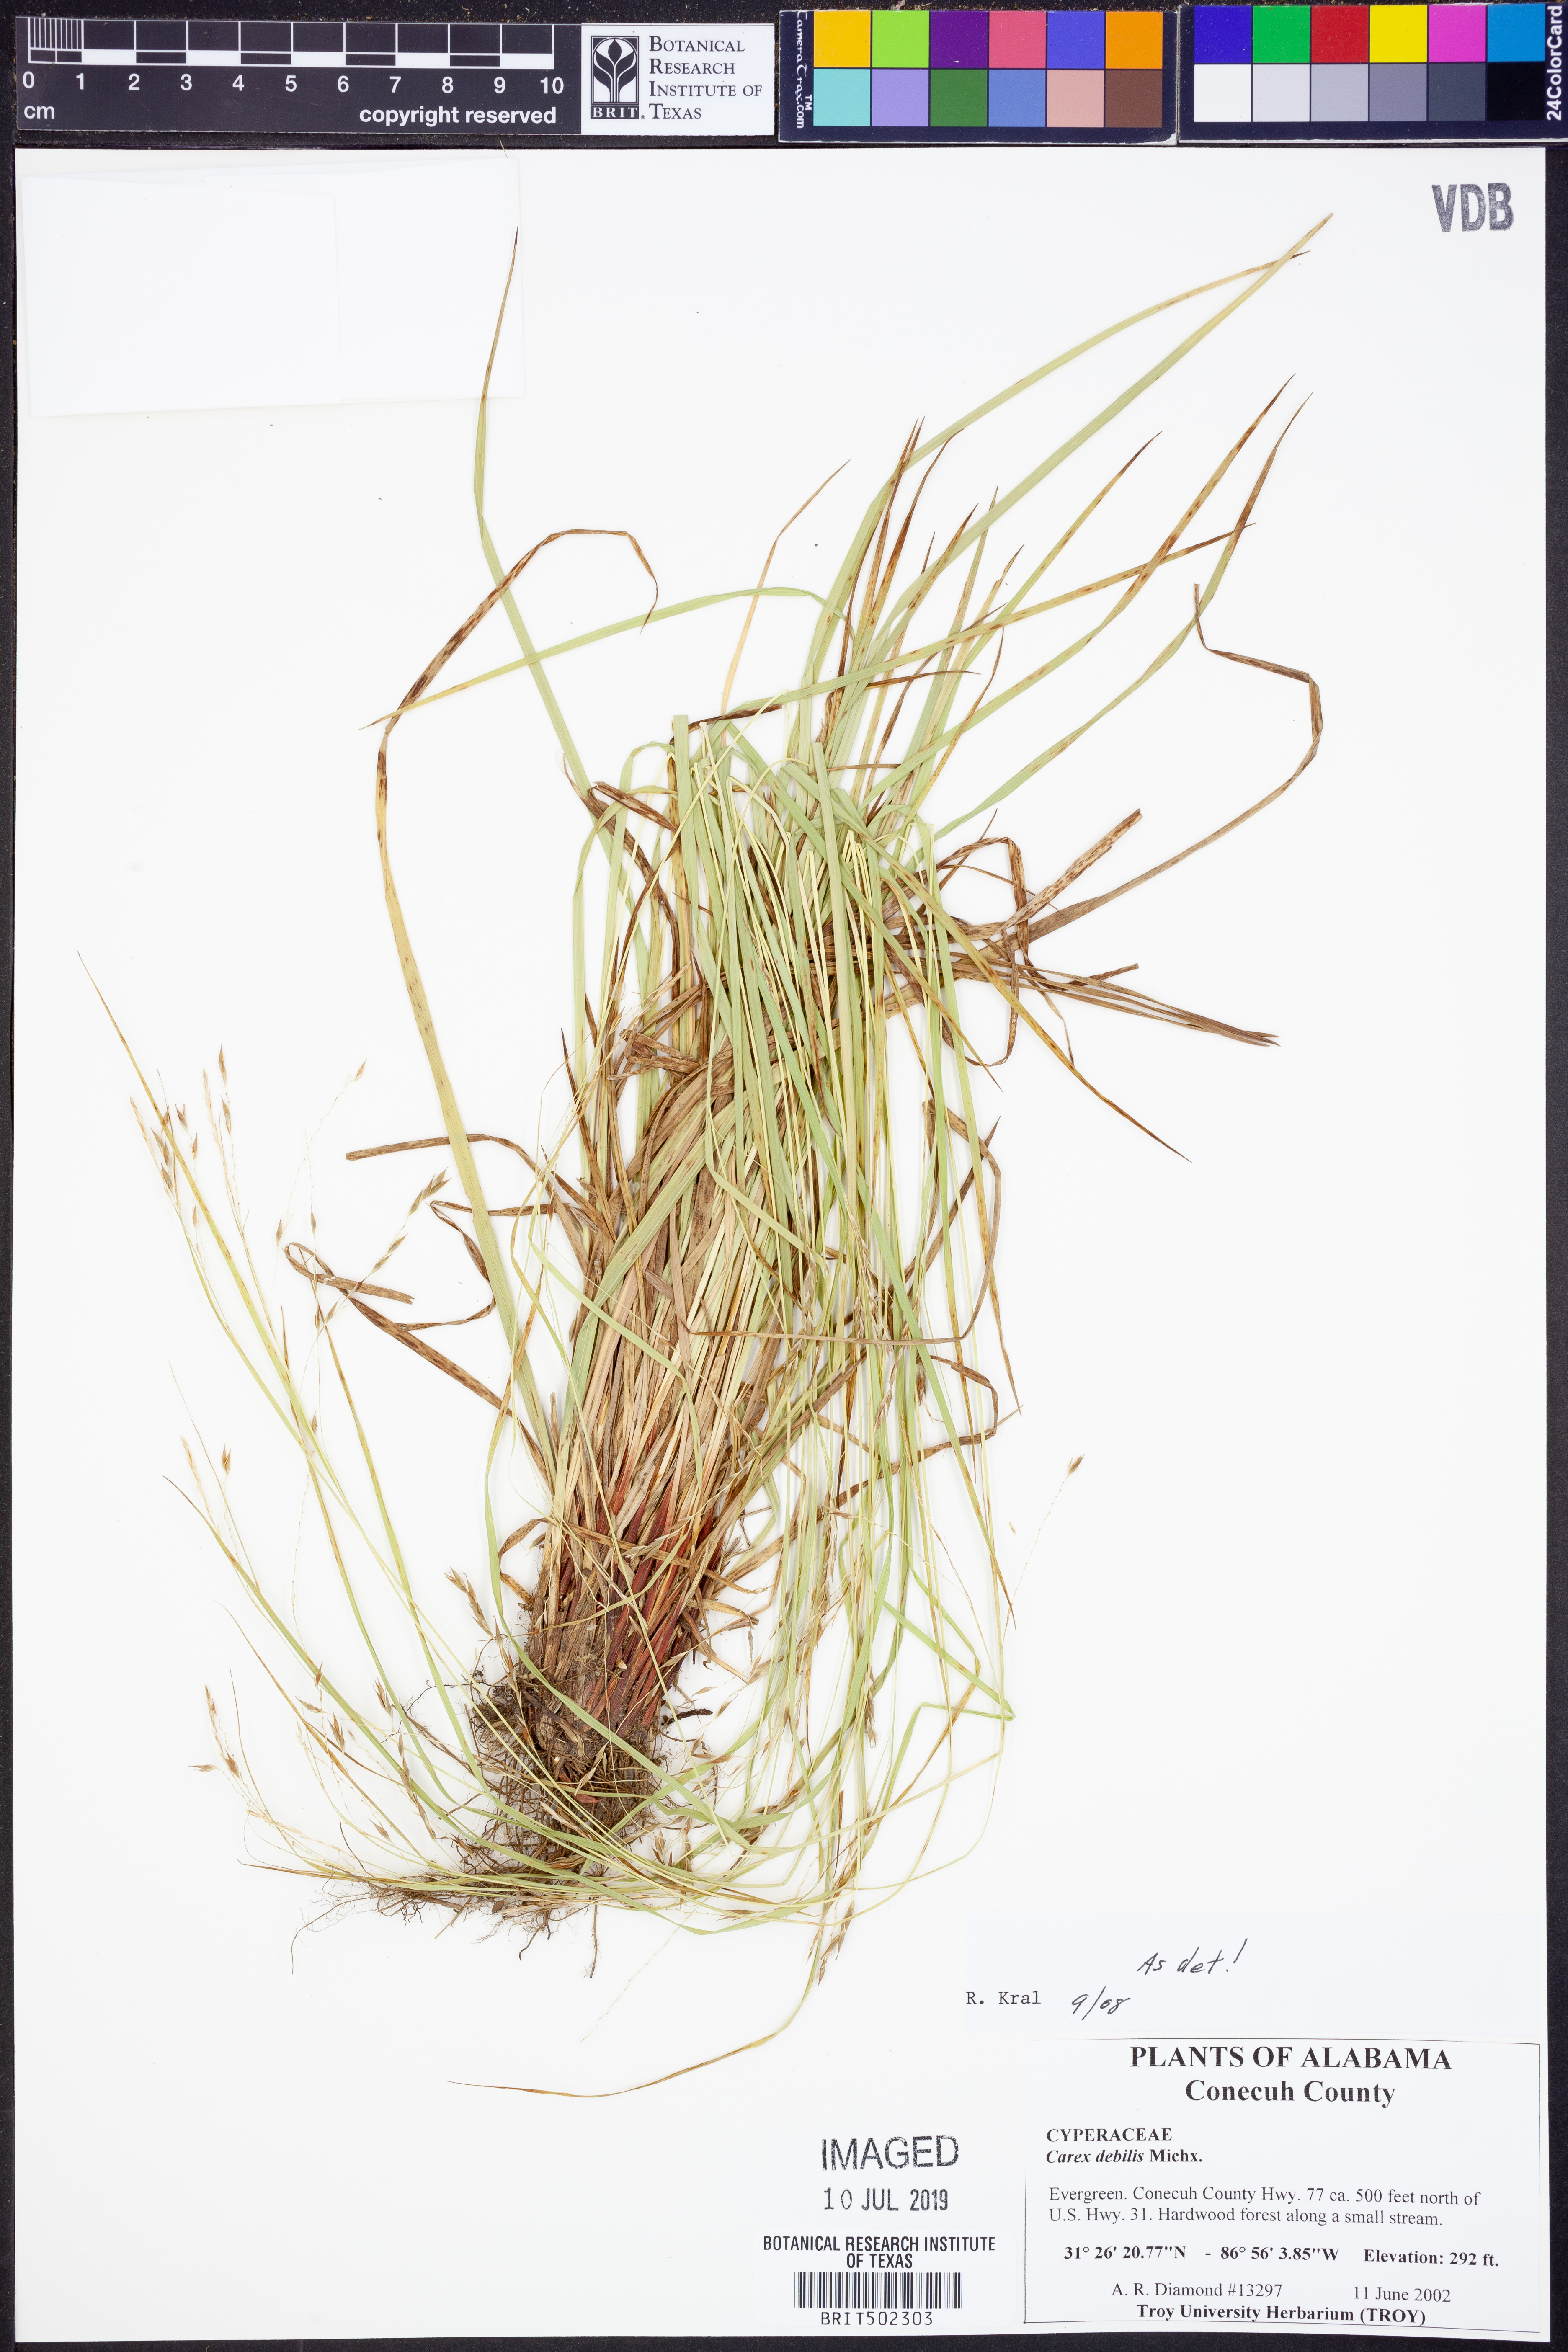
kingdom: Plantae
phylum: Tracheophyta
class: Liliopsida
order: Poales
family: Cyperaceae
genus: Carex
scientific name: Carex debilis
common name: White-edge sedge
